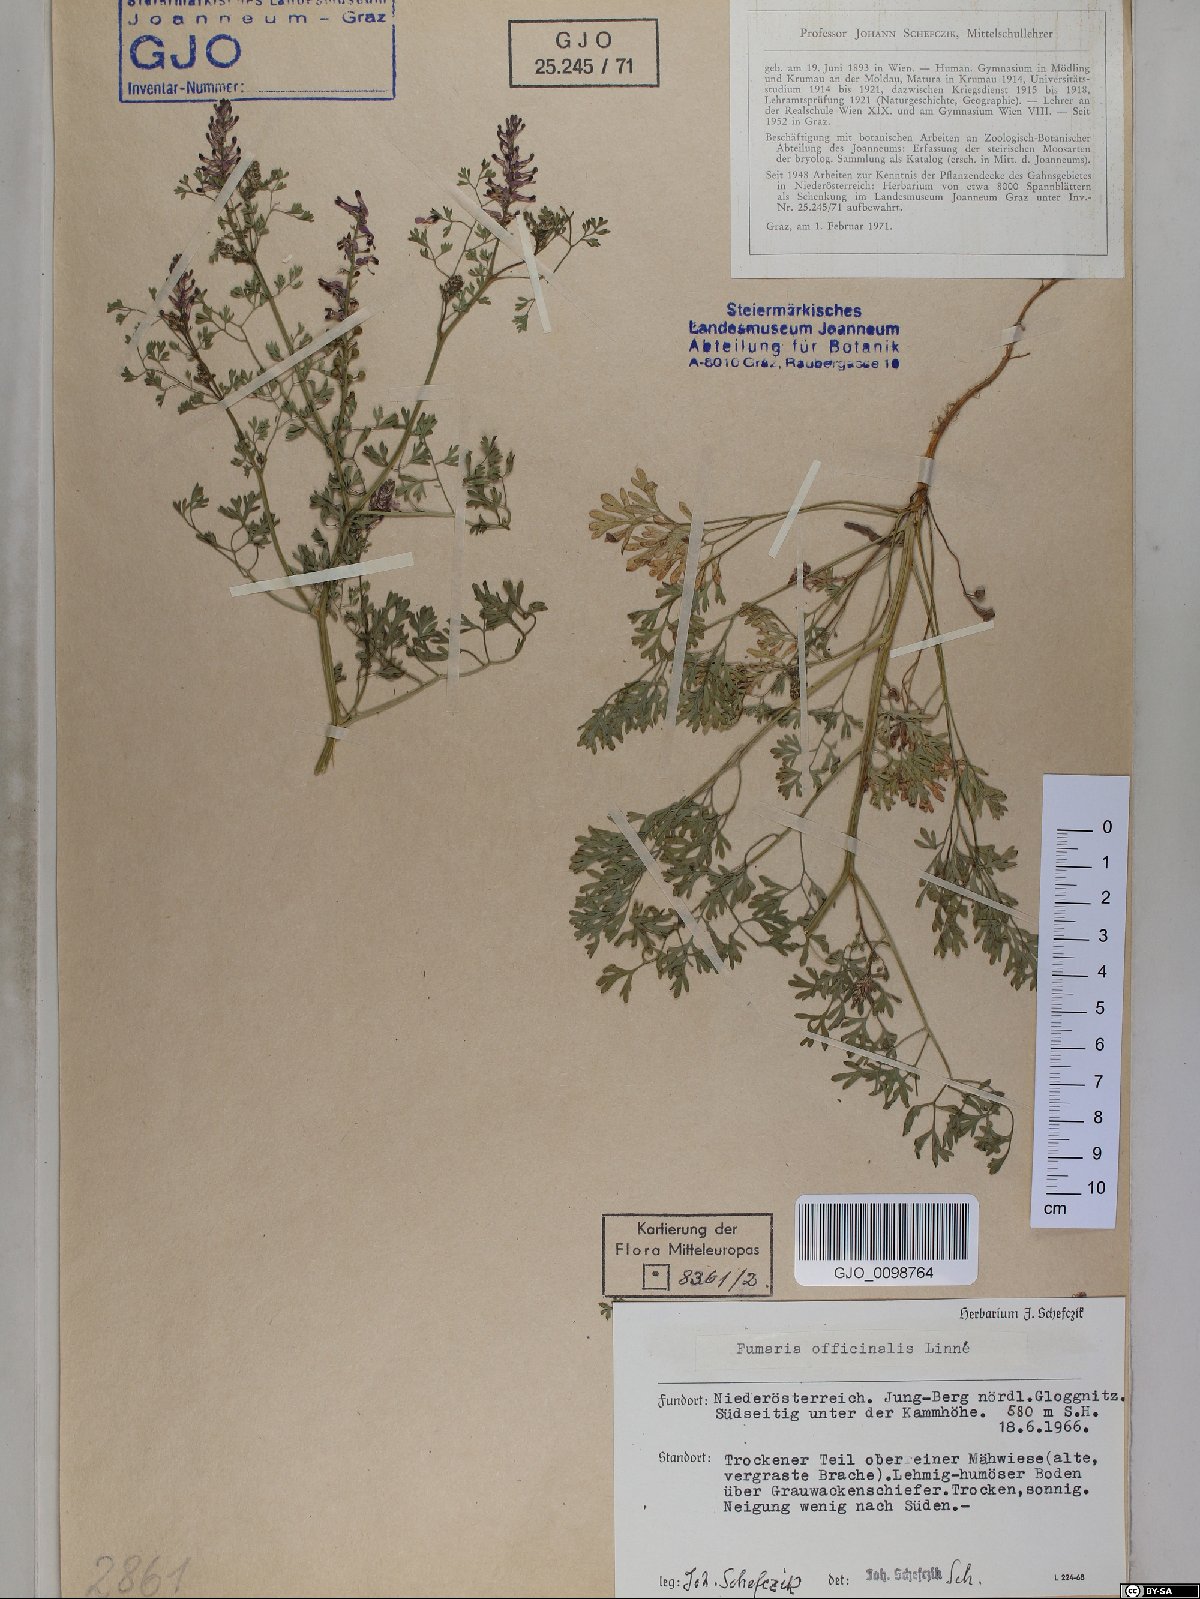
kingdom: Plantae
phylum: Tracheophyta
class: Magnoliopsida
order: Ranunculales
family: Papaveraceae
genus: Fumaria
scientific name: Fumaria officinalis
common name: Common fumitory
